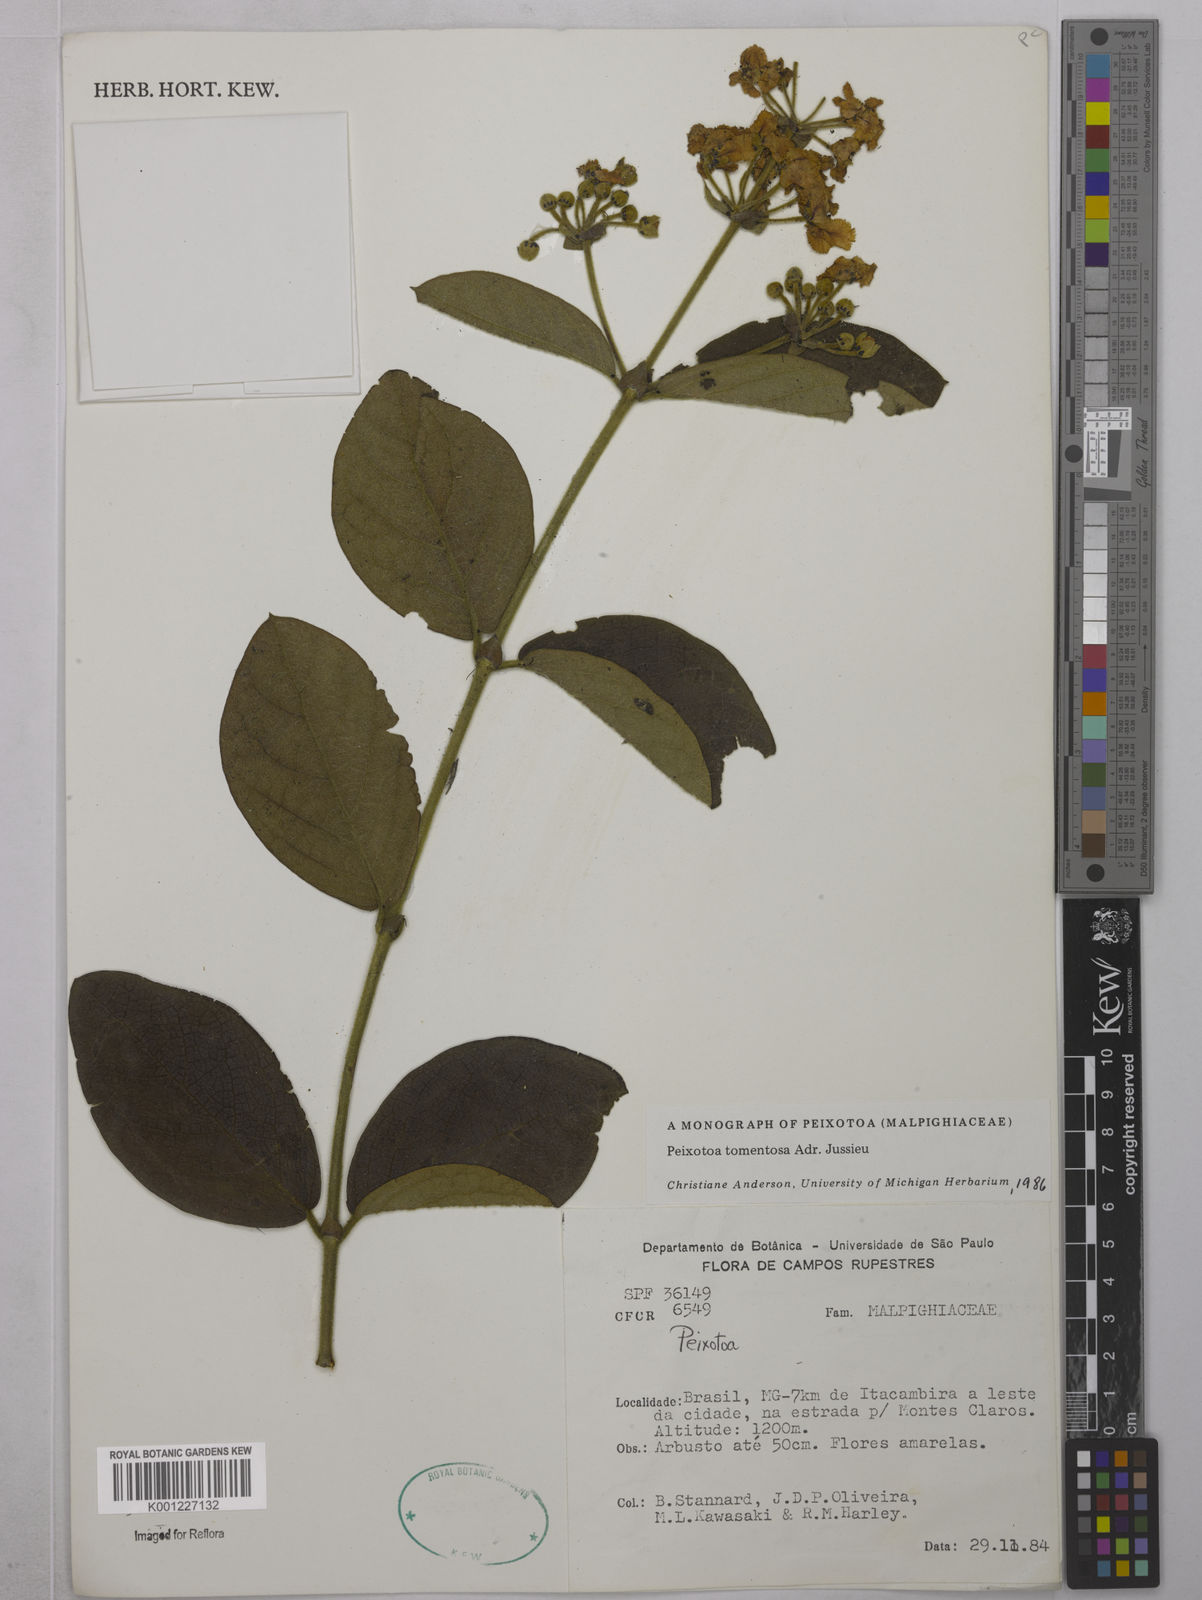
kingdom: Plantae
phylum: Tracheophyta
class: Magnoliopsida
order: Malpighiales
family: Malpighiaceae
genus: Peixotoa
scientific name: Peixotoa tomentosa
